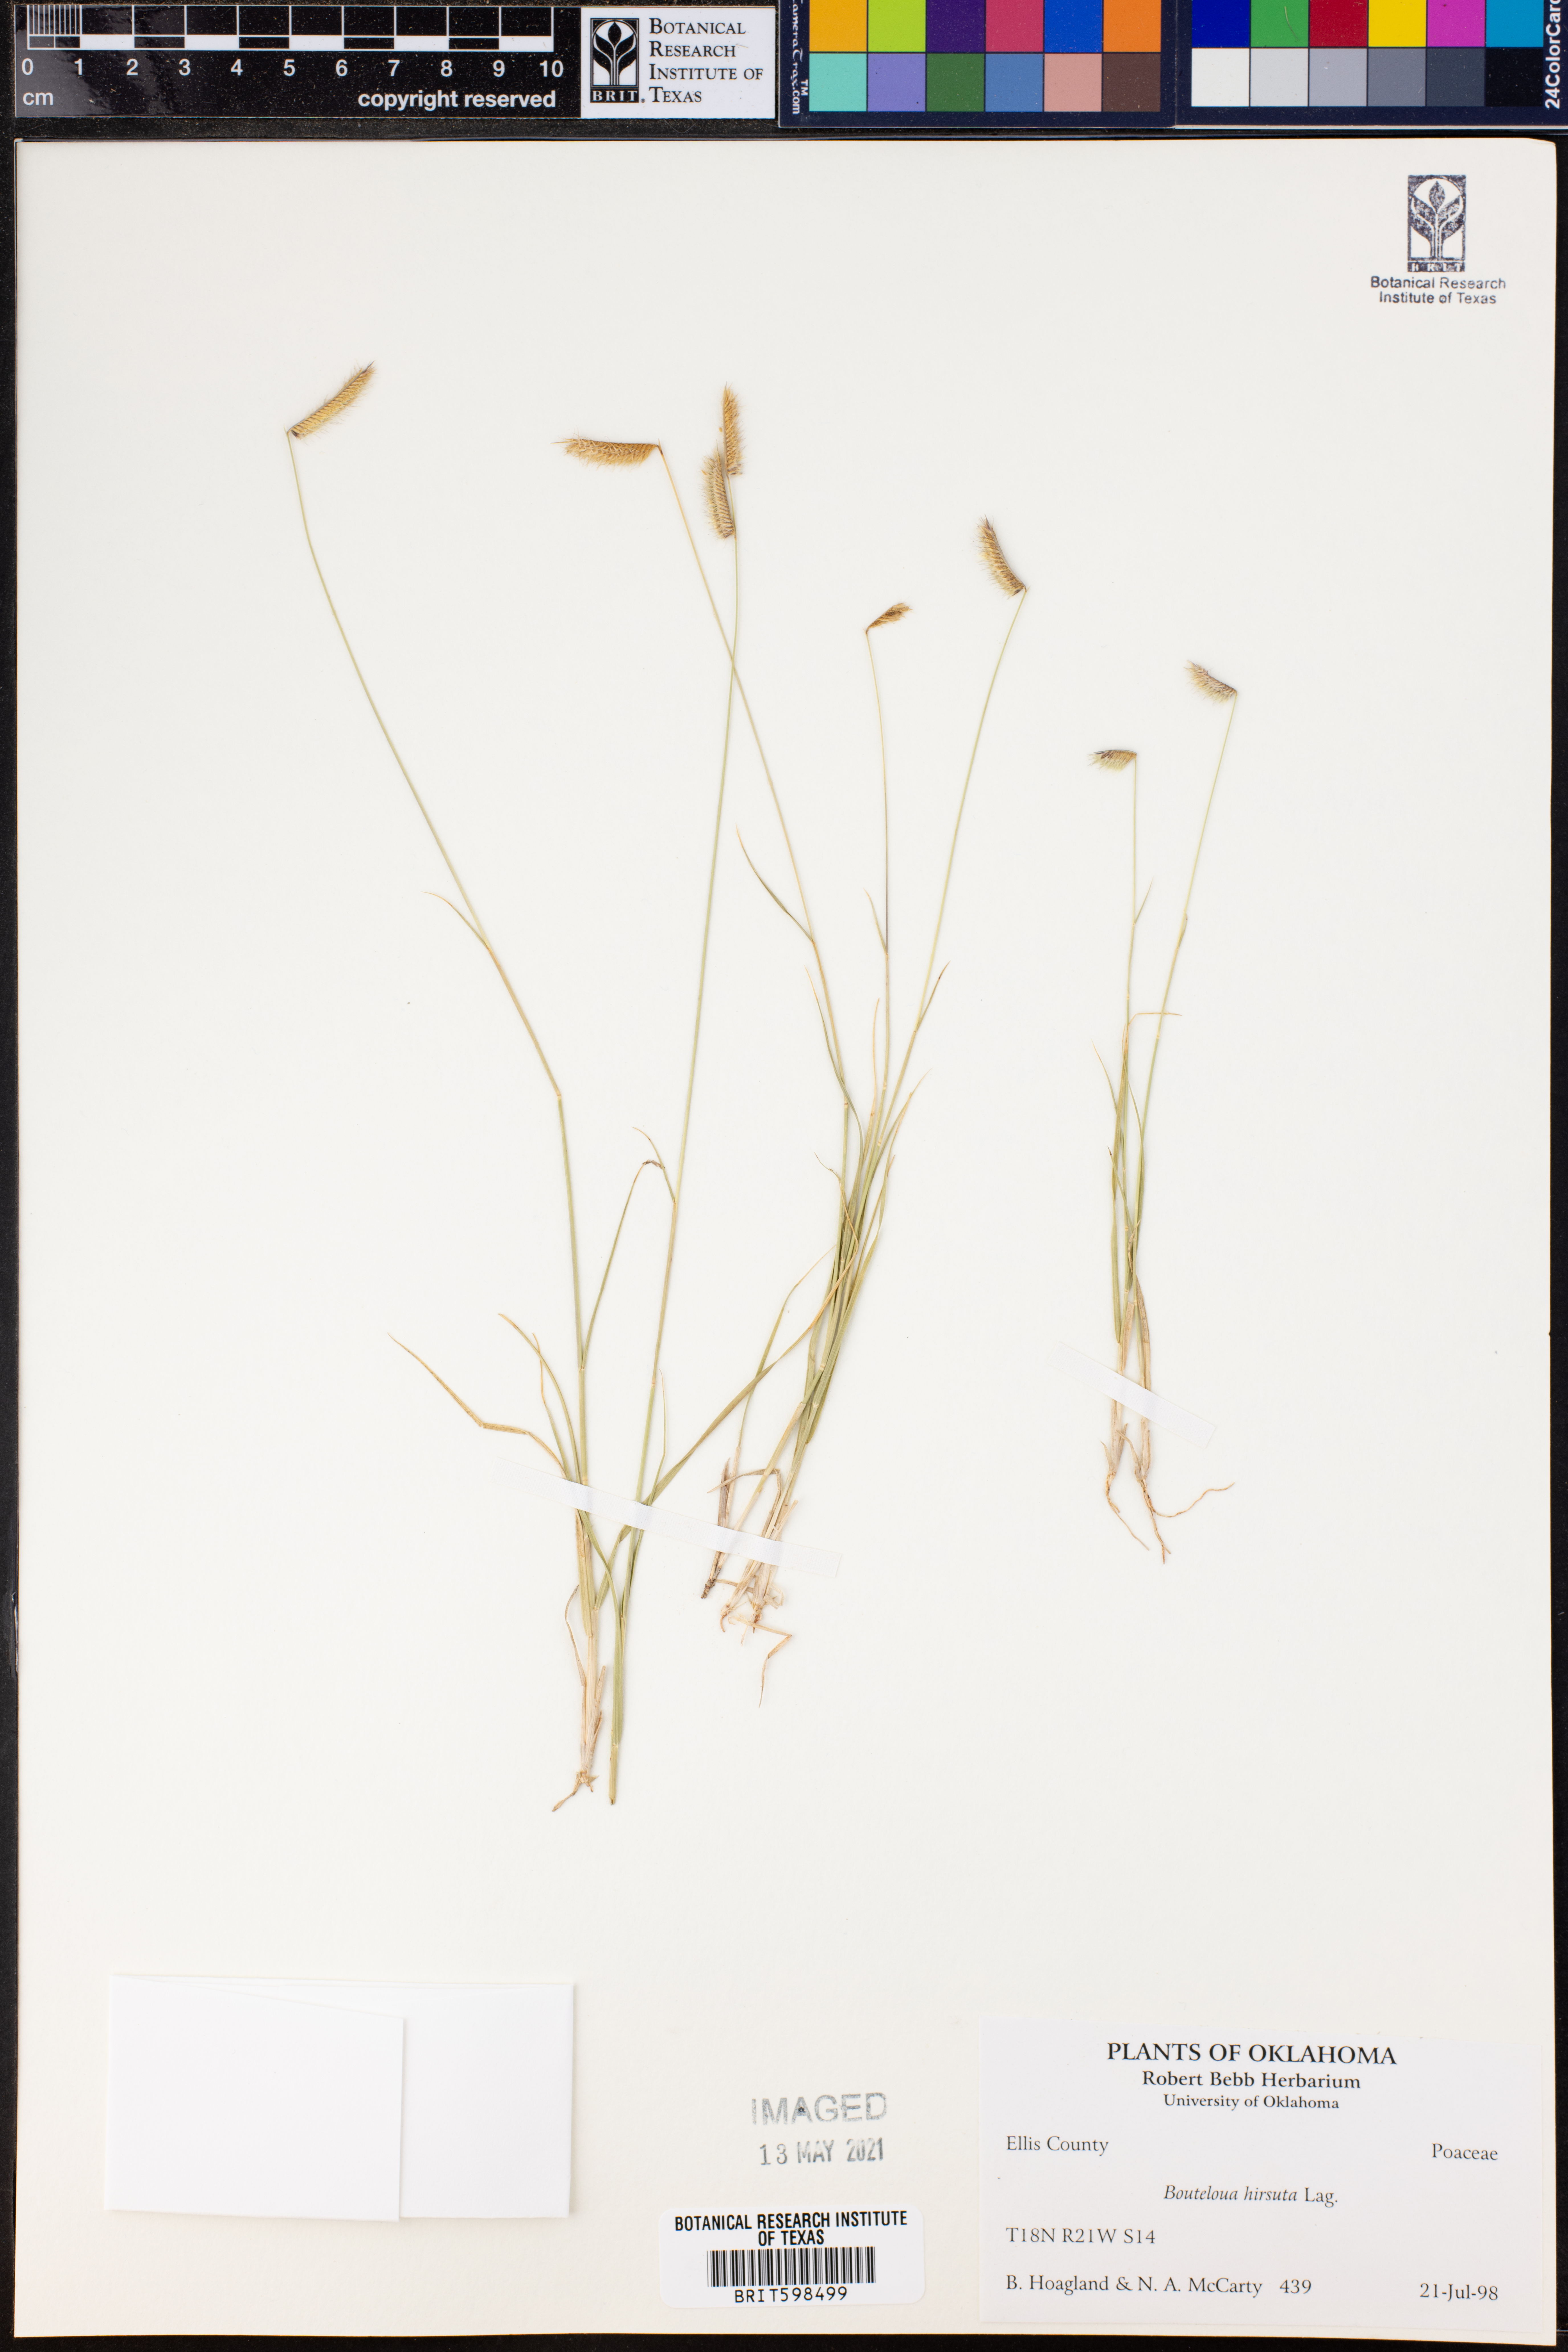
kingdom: Plantae
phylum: Tracheophyta
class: Liliopsida
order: Poales
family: Poaceae
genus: Bouteloua
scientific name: Bouteloua hirsuta
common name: Hairy grama
